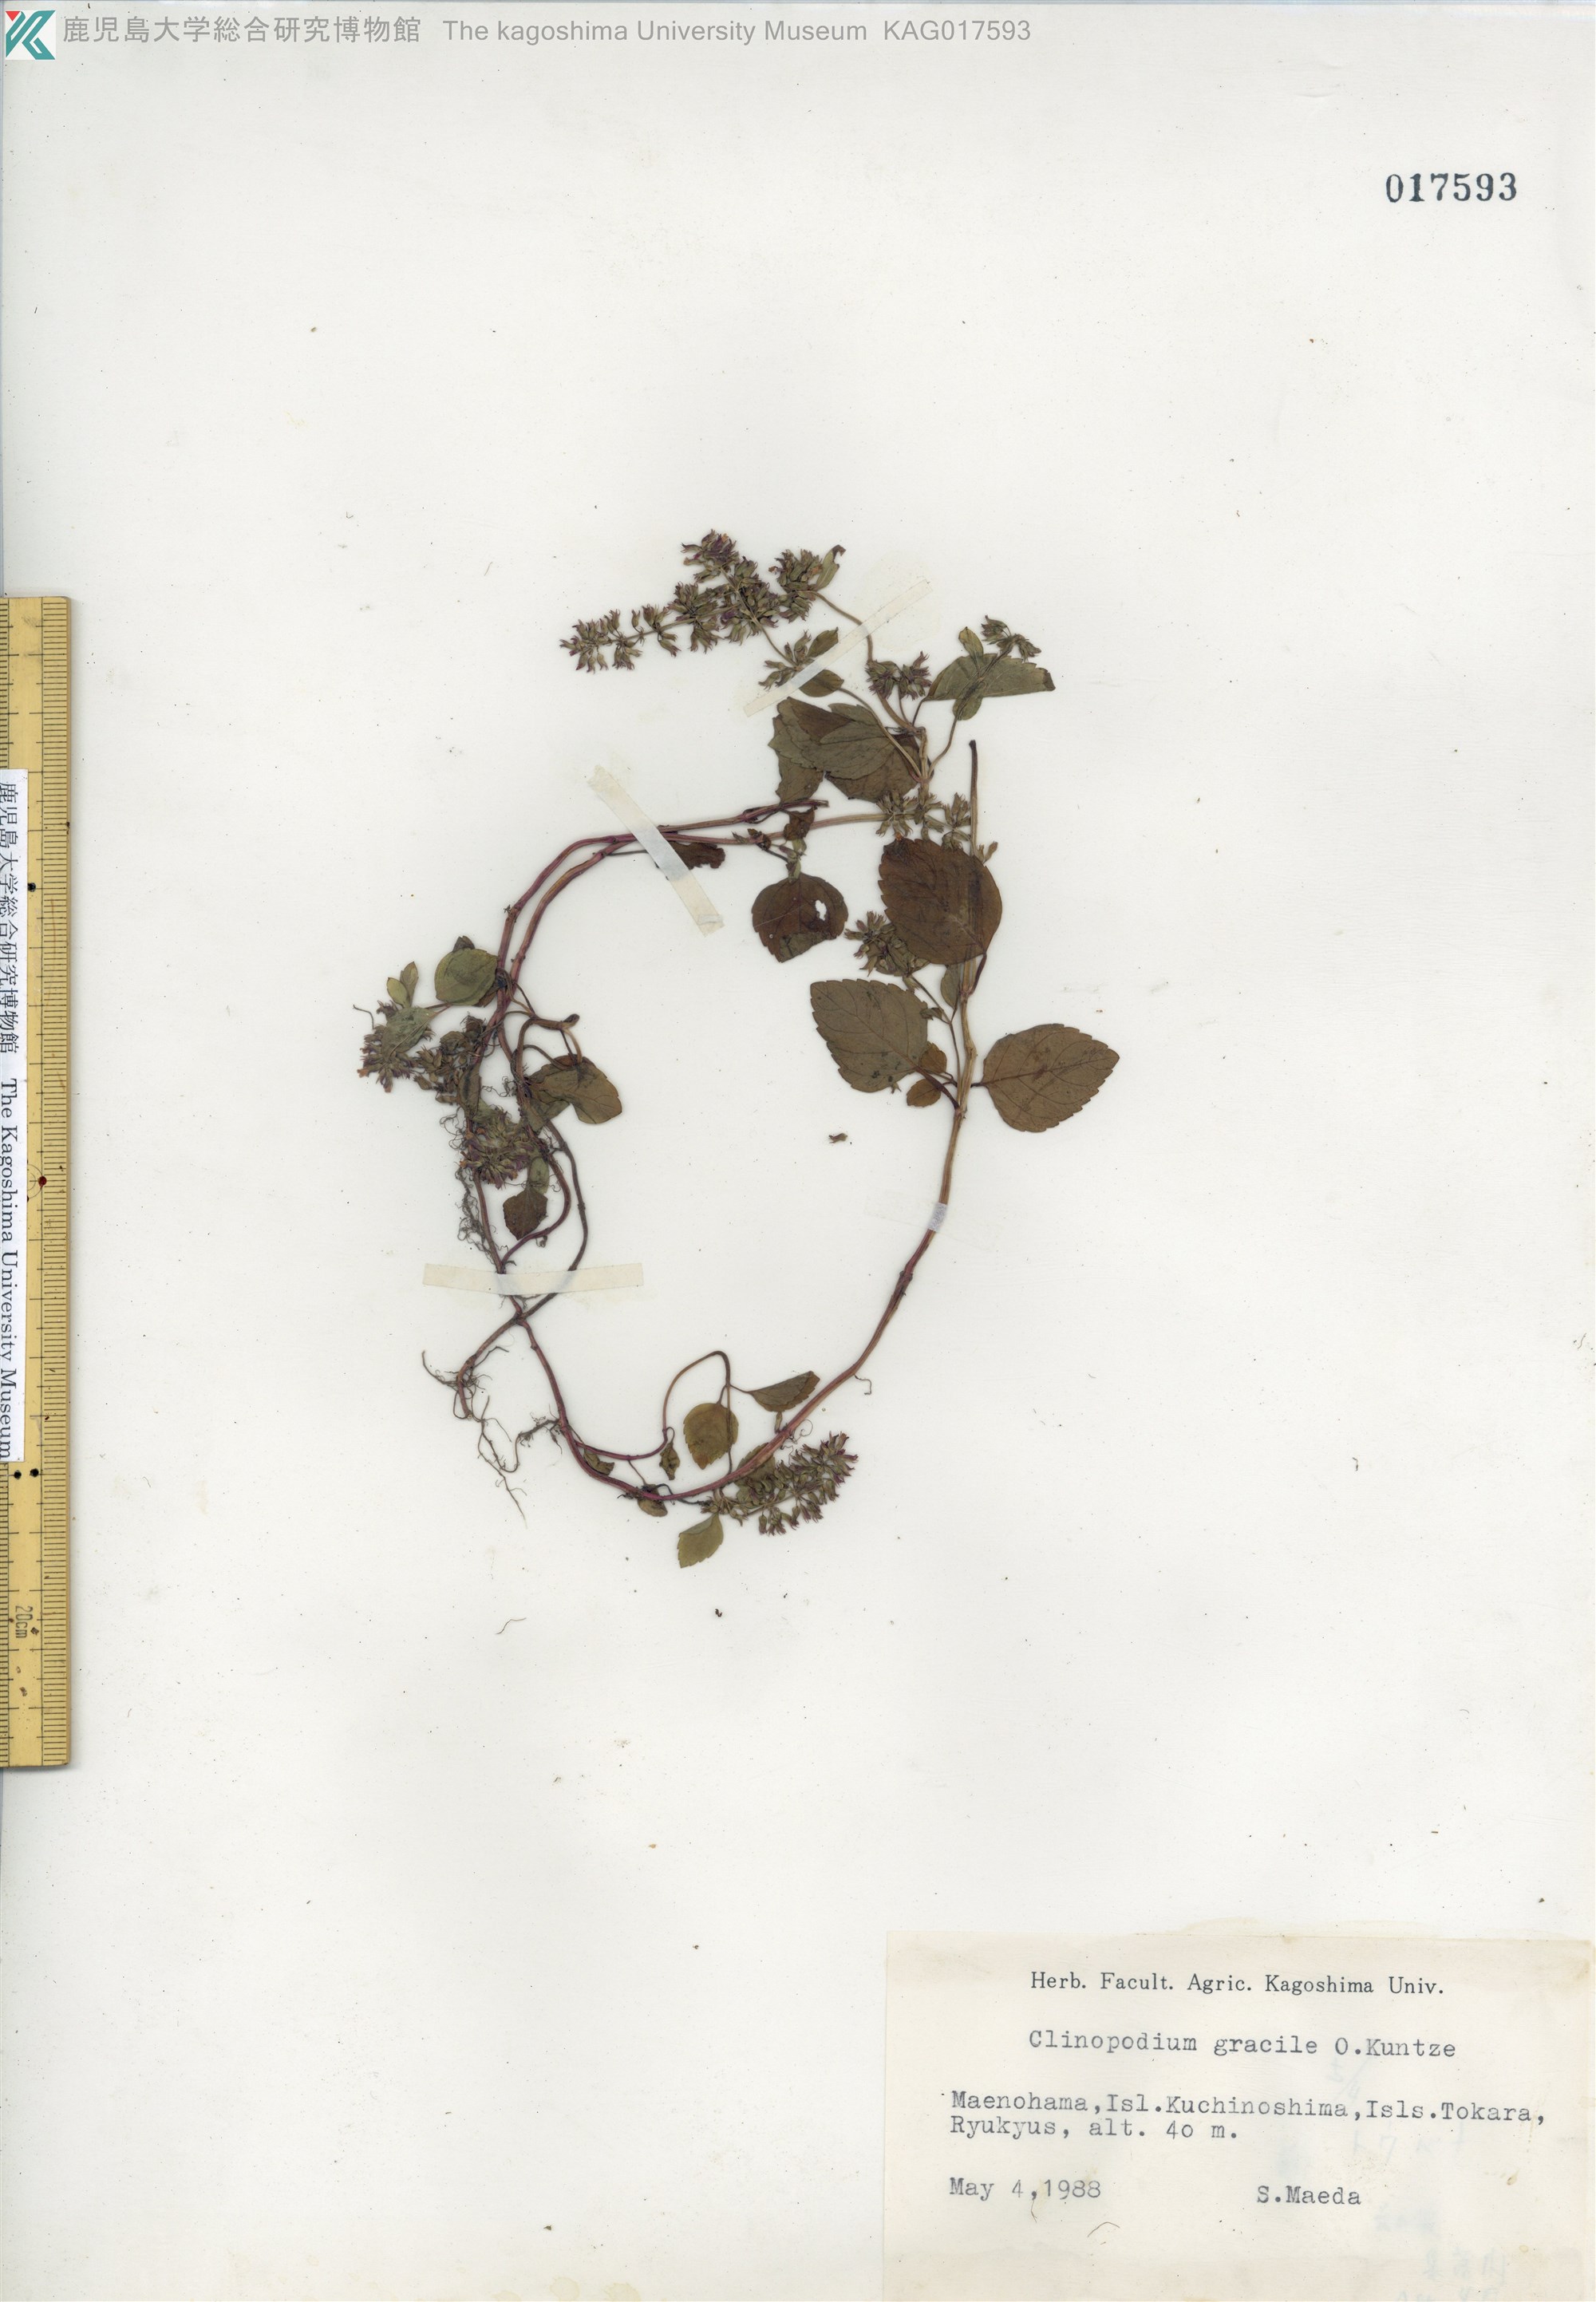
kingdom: Plantae
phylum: Tracheophyta
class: Magnoliopsida
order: Lamiales
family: Lamiaceae
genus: Clinopodium
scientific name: Clinopodium gracile
